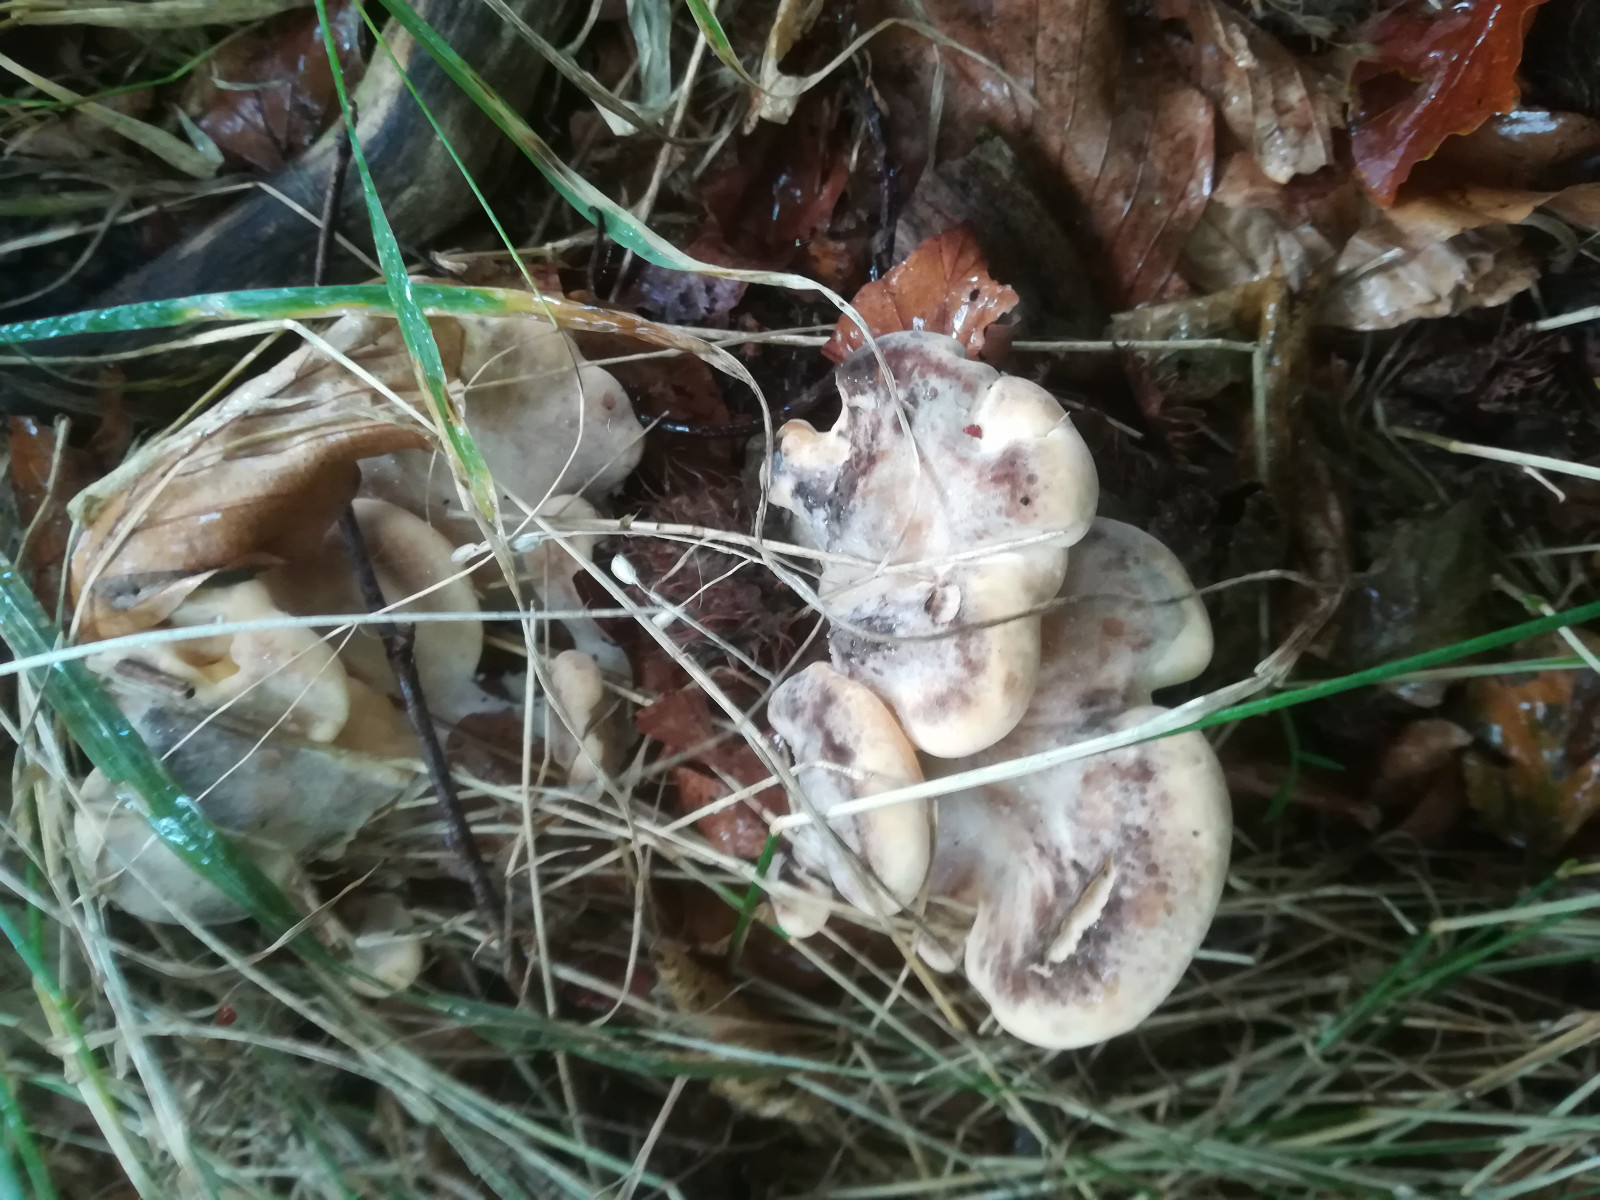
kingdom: Fungi
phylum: Basidiomycota
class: Agaricomycetes
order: Polyporales
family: Meripilaceae
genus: Meripilus
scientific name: Meripilus giganteus
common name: kæmpeporesvamp
